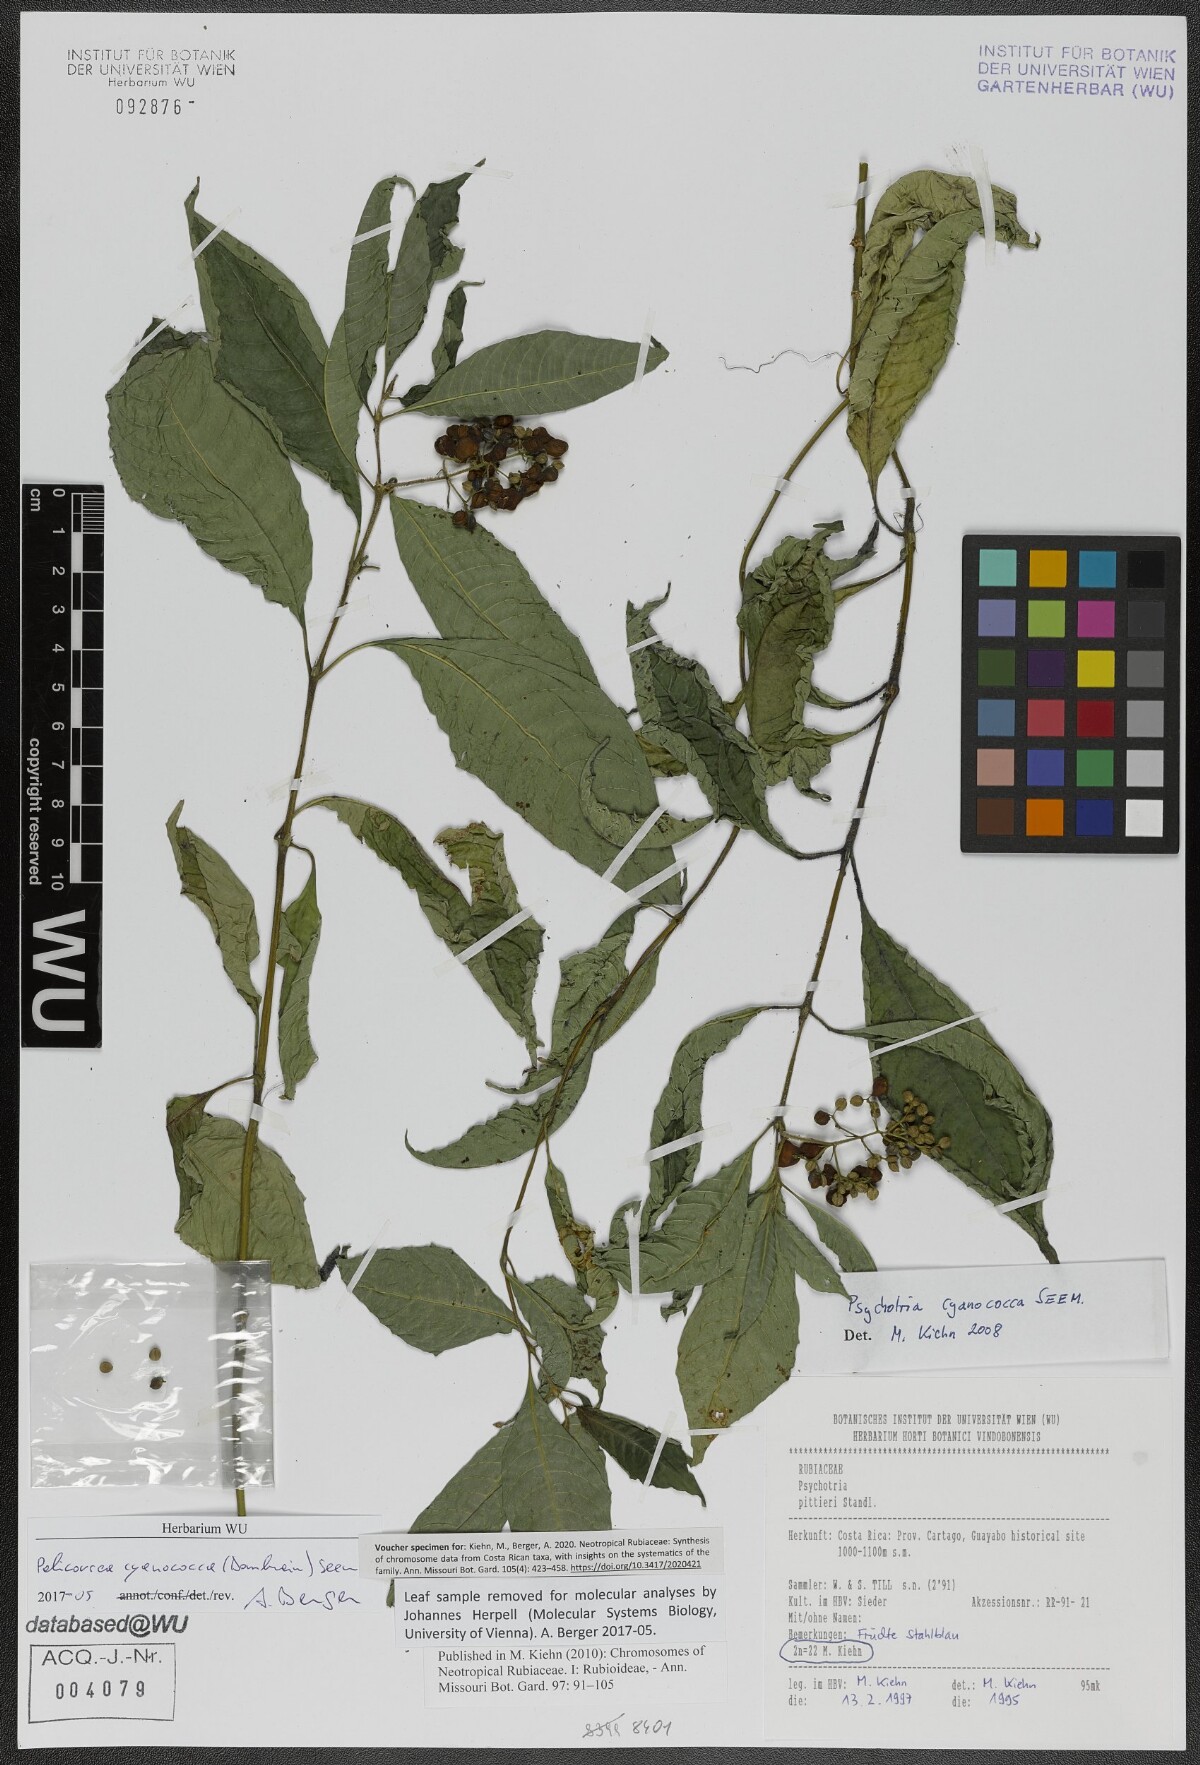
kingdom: Plantae
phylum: Tracheophyta
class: Magnoliopsida
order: Gentianales
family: Rubiaceae
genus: Palicourea
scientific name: Palicourea cyanococca
